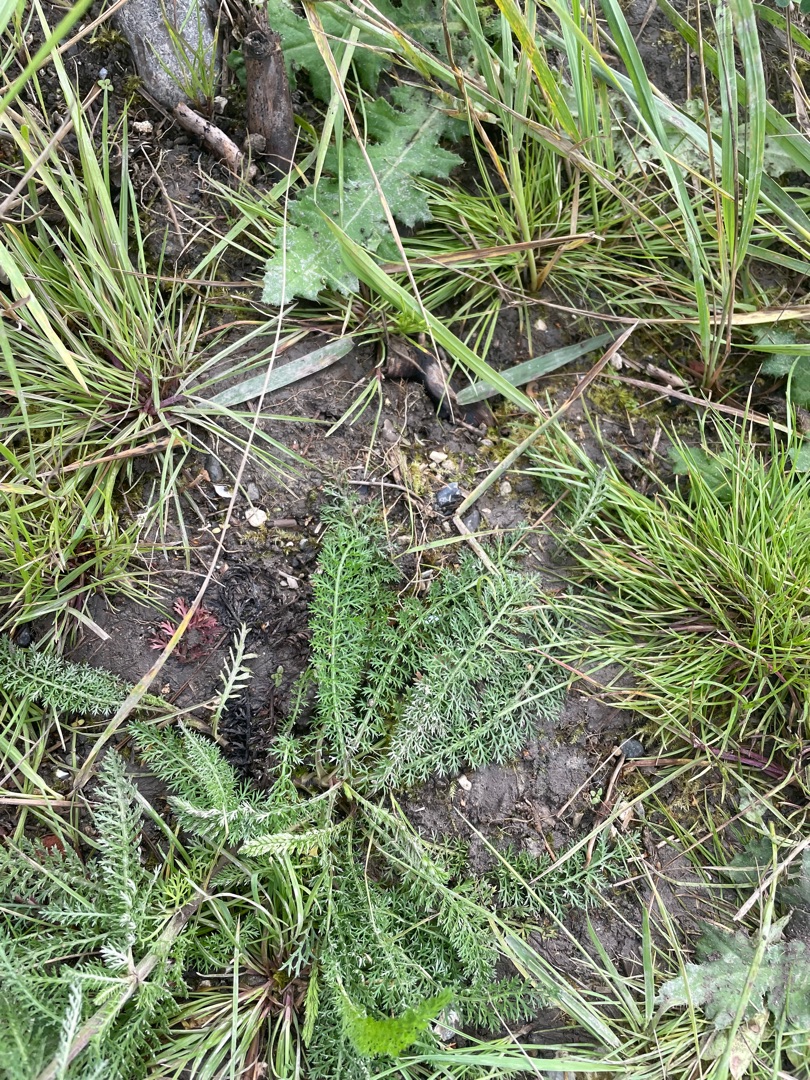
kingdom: Plantae
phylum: Tracheophyta
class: Magnoliopsida
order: Asterales
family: Asteraceae
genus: Achillea
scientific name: Achillea millefolium
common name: Almindelig røllike
